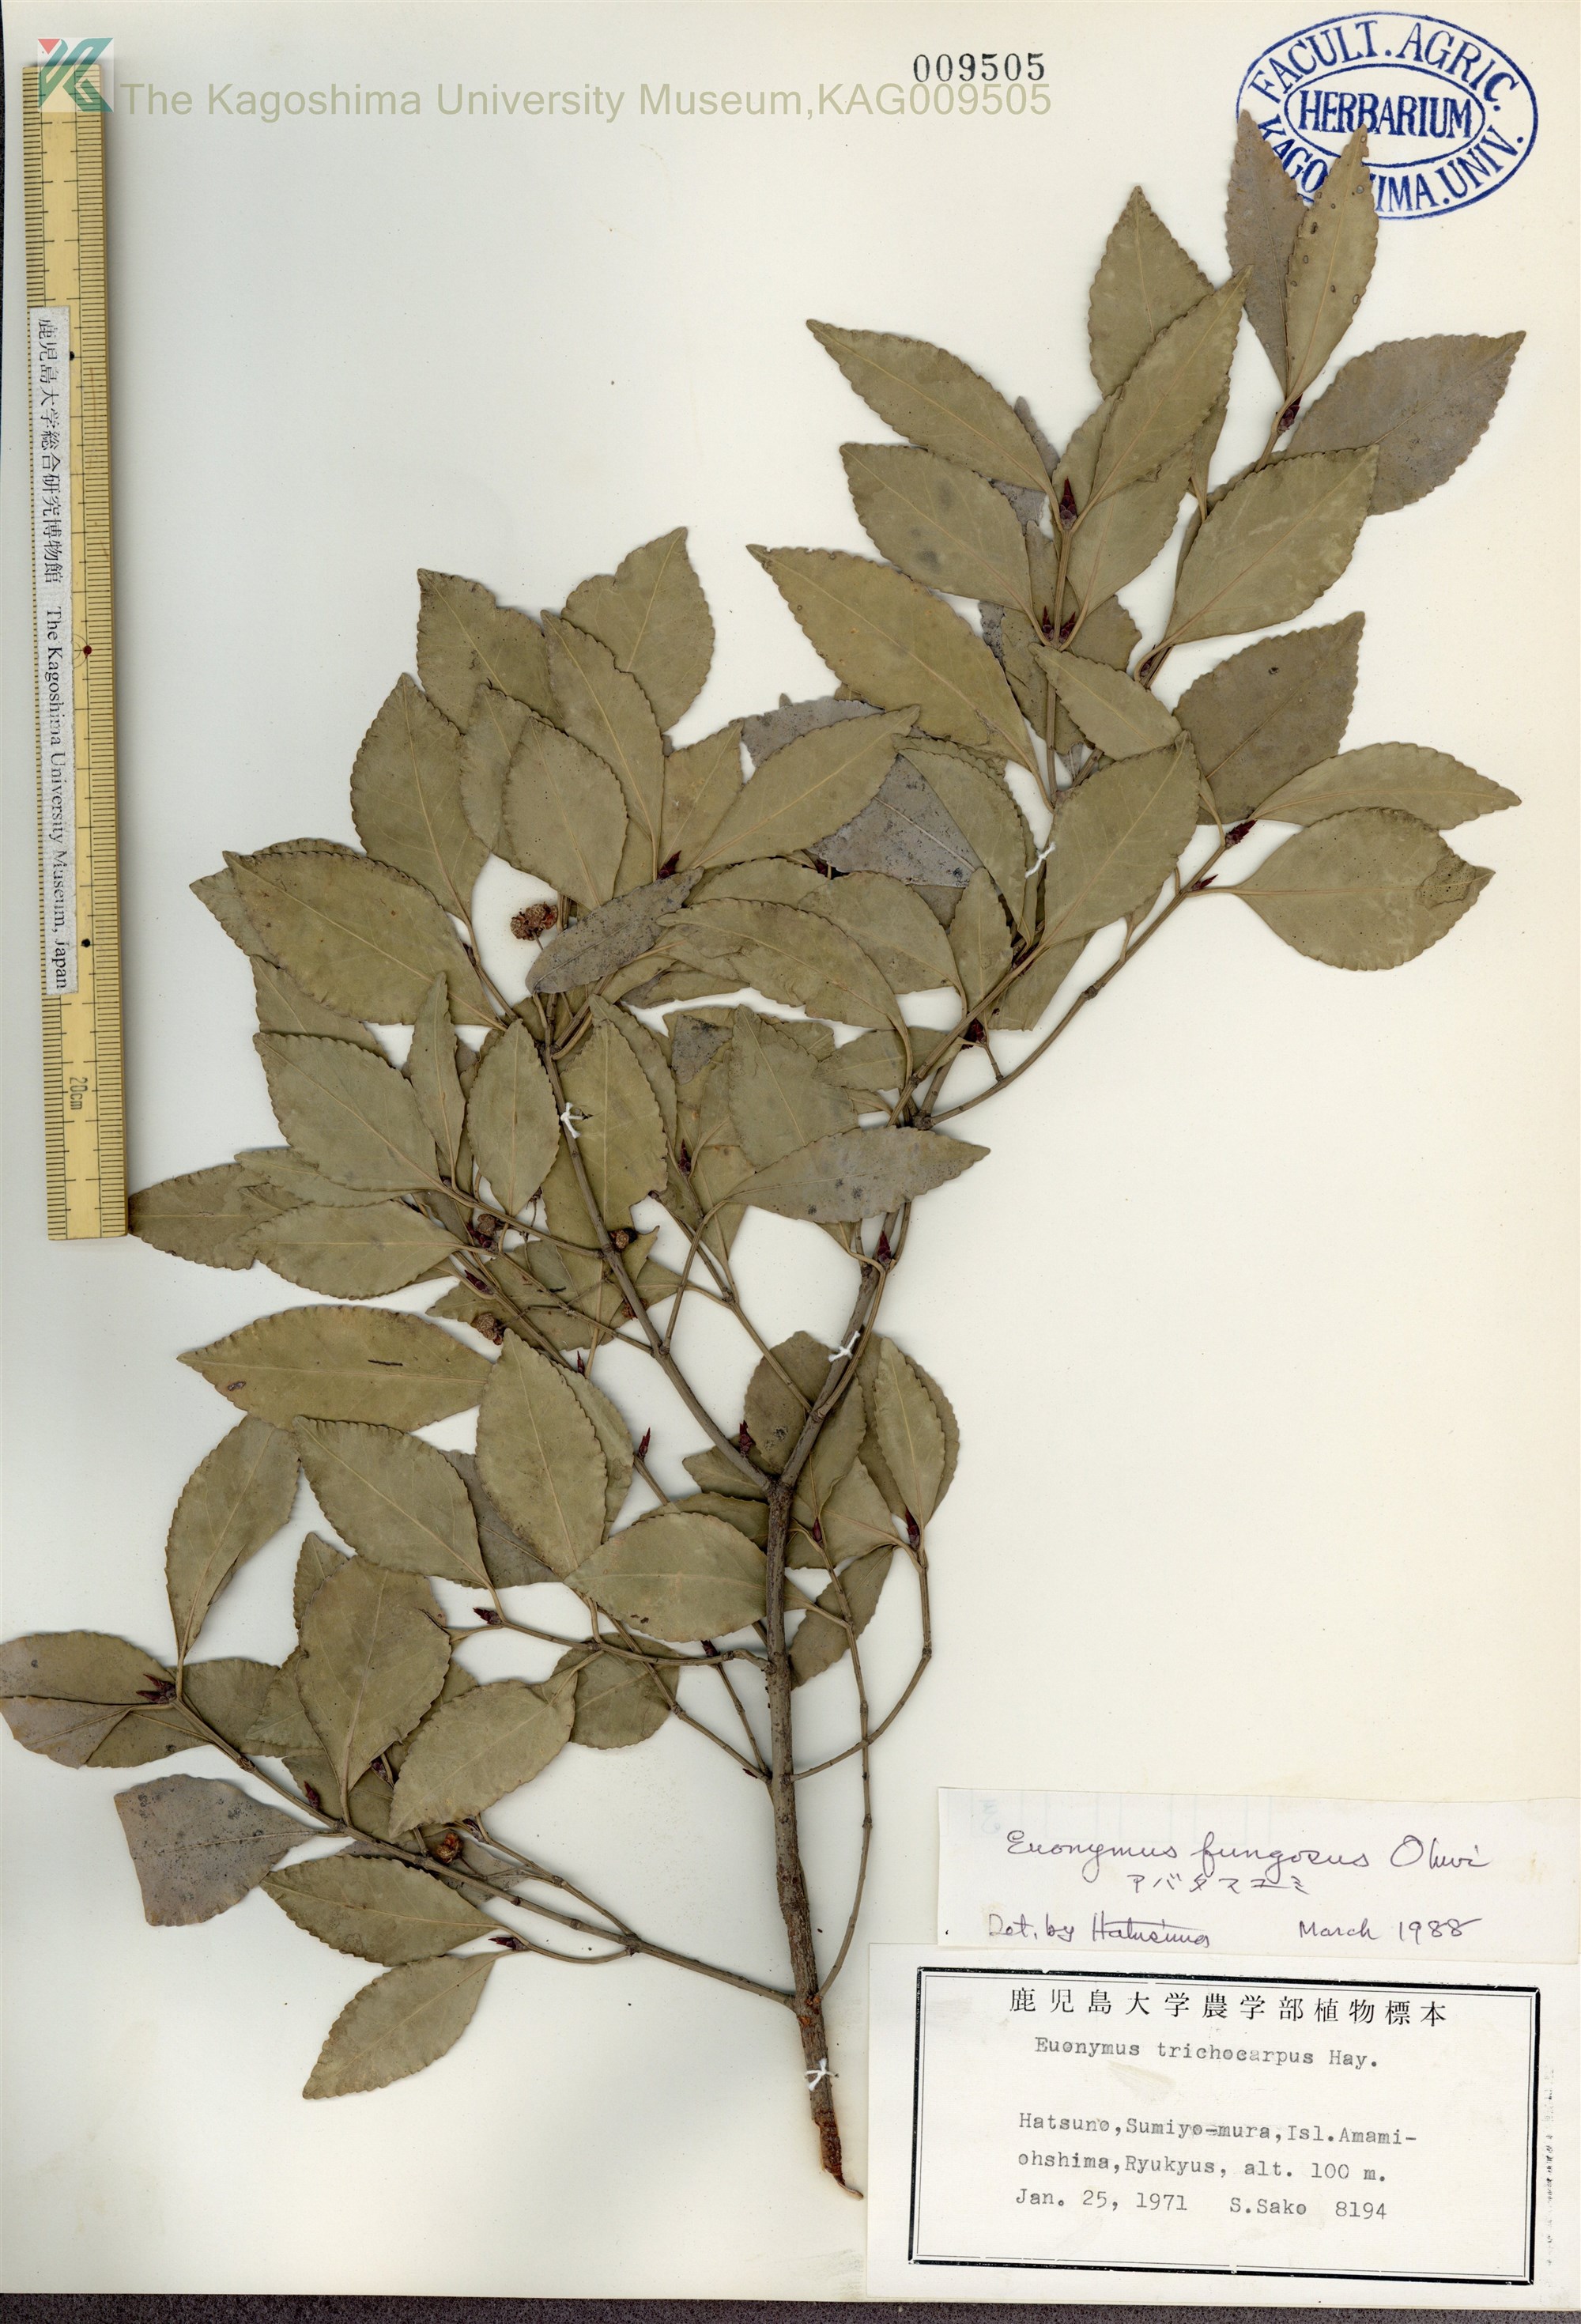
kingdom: Plantae
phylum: Tracheophyta
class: Magnoliopsida
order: Celastrales
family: Celastraceae
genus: Euonymus
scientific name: Euonymus echinatus
